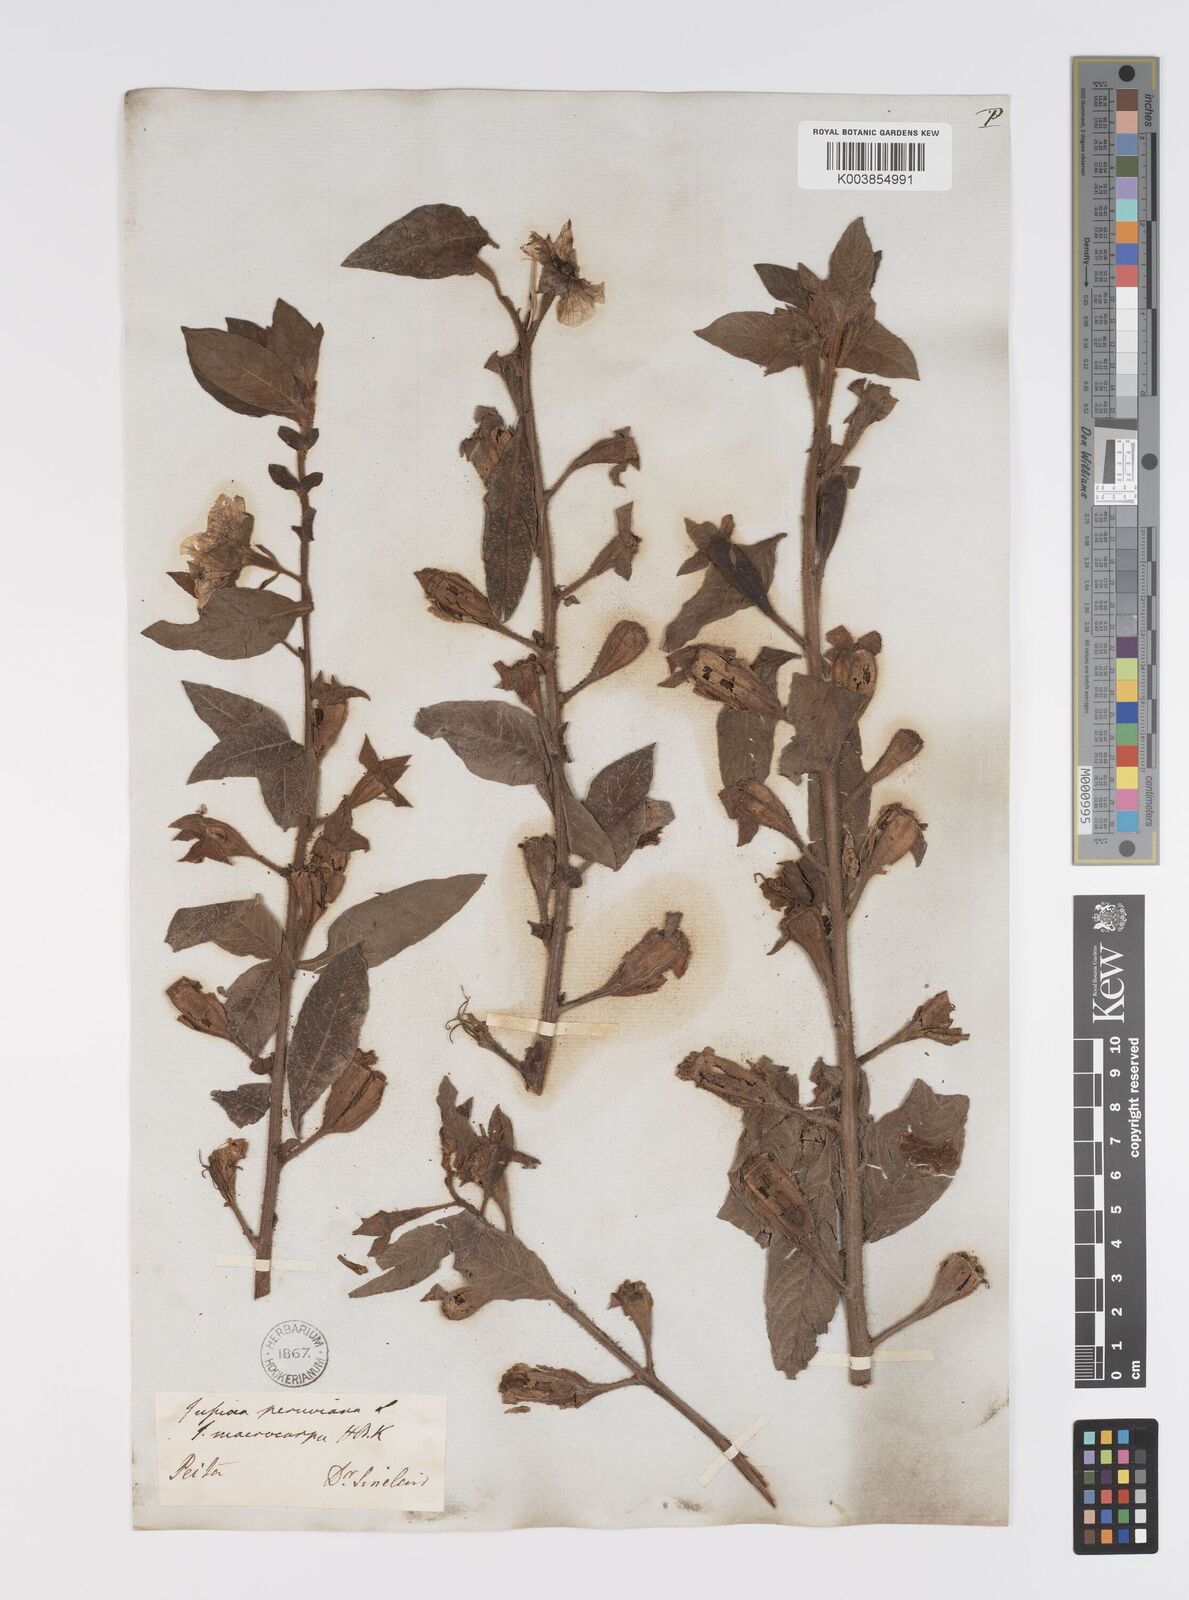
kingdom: Plantae
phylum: Tracheophyta
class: Magnoliopsida
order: Myrtales
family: Onagraceae
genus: Ludwigia
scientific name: Ludwigia peruviana
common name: Peruvian primrose-willow
